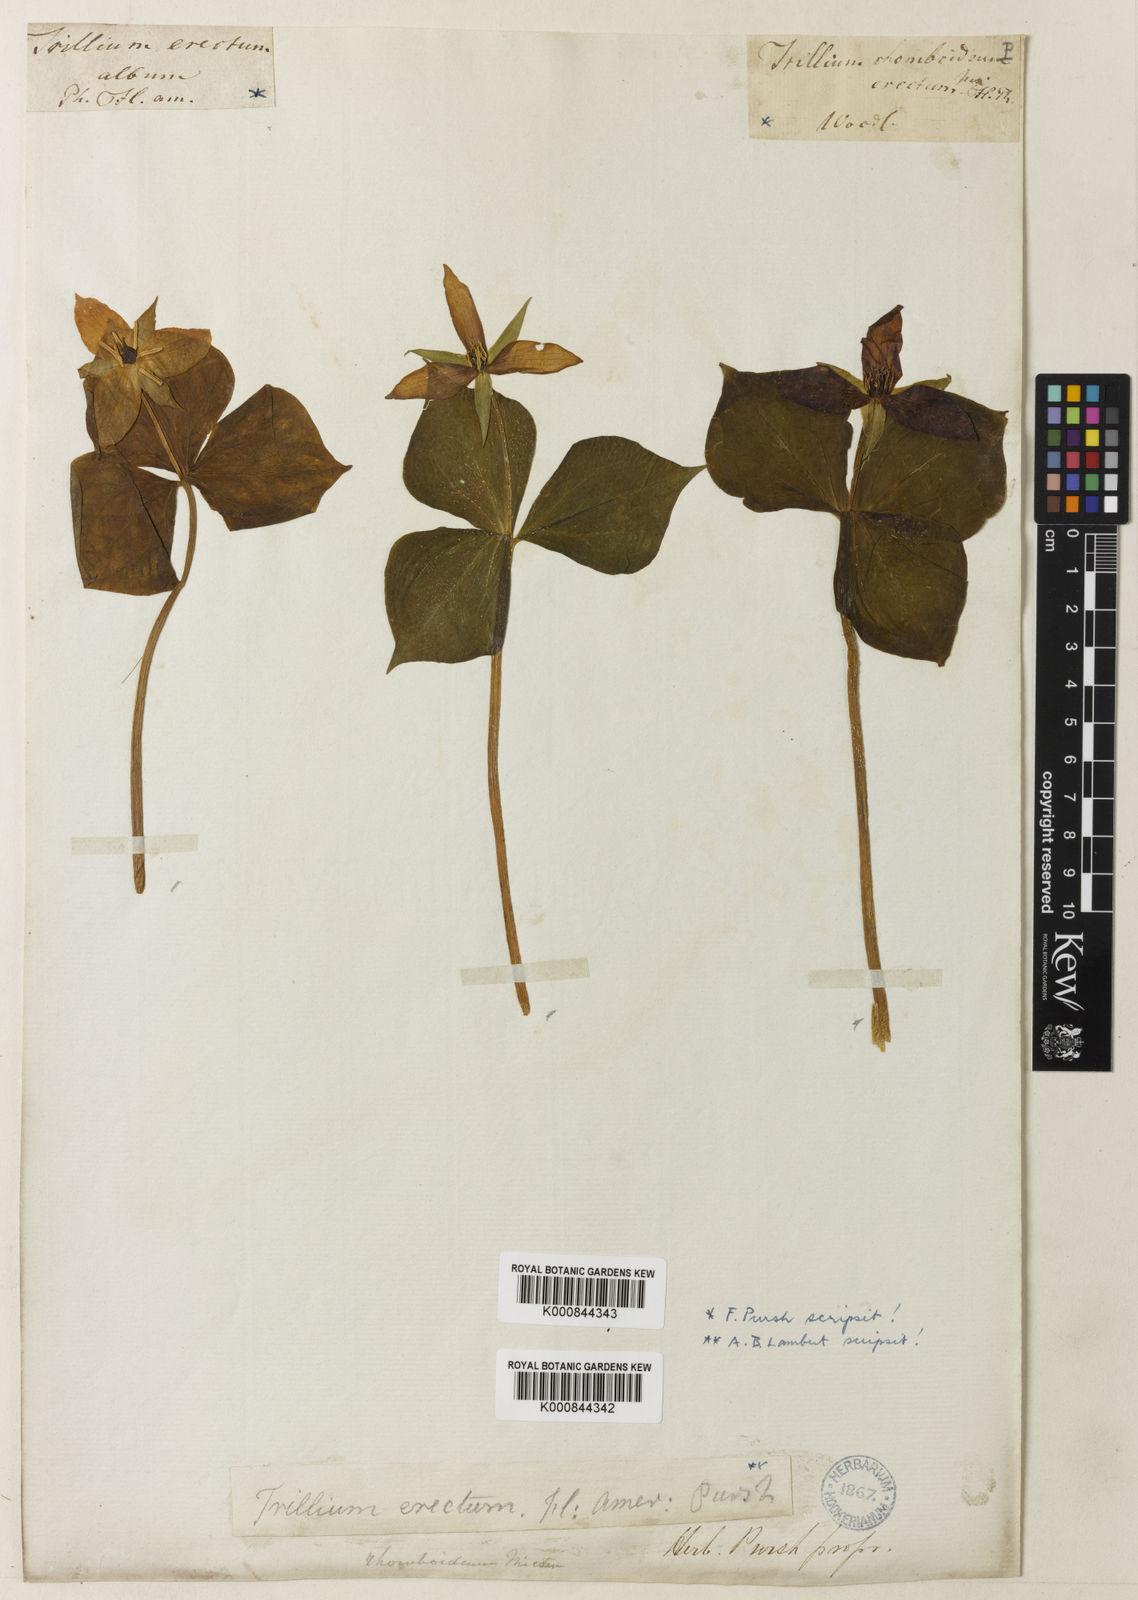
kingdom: Plantae
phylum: Tracheophyta
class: Liliopsida
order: Liliales
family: Melanthiaceae
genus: Trillium
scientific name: Trillium erectum
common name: Purple trillium
